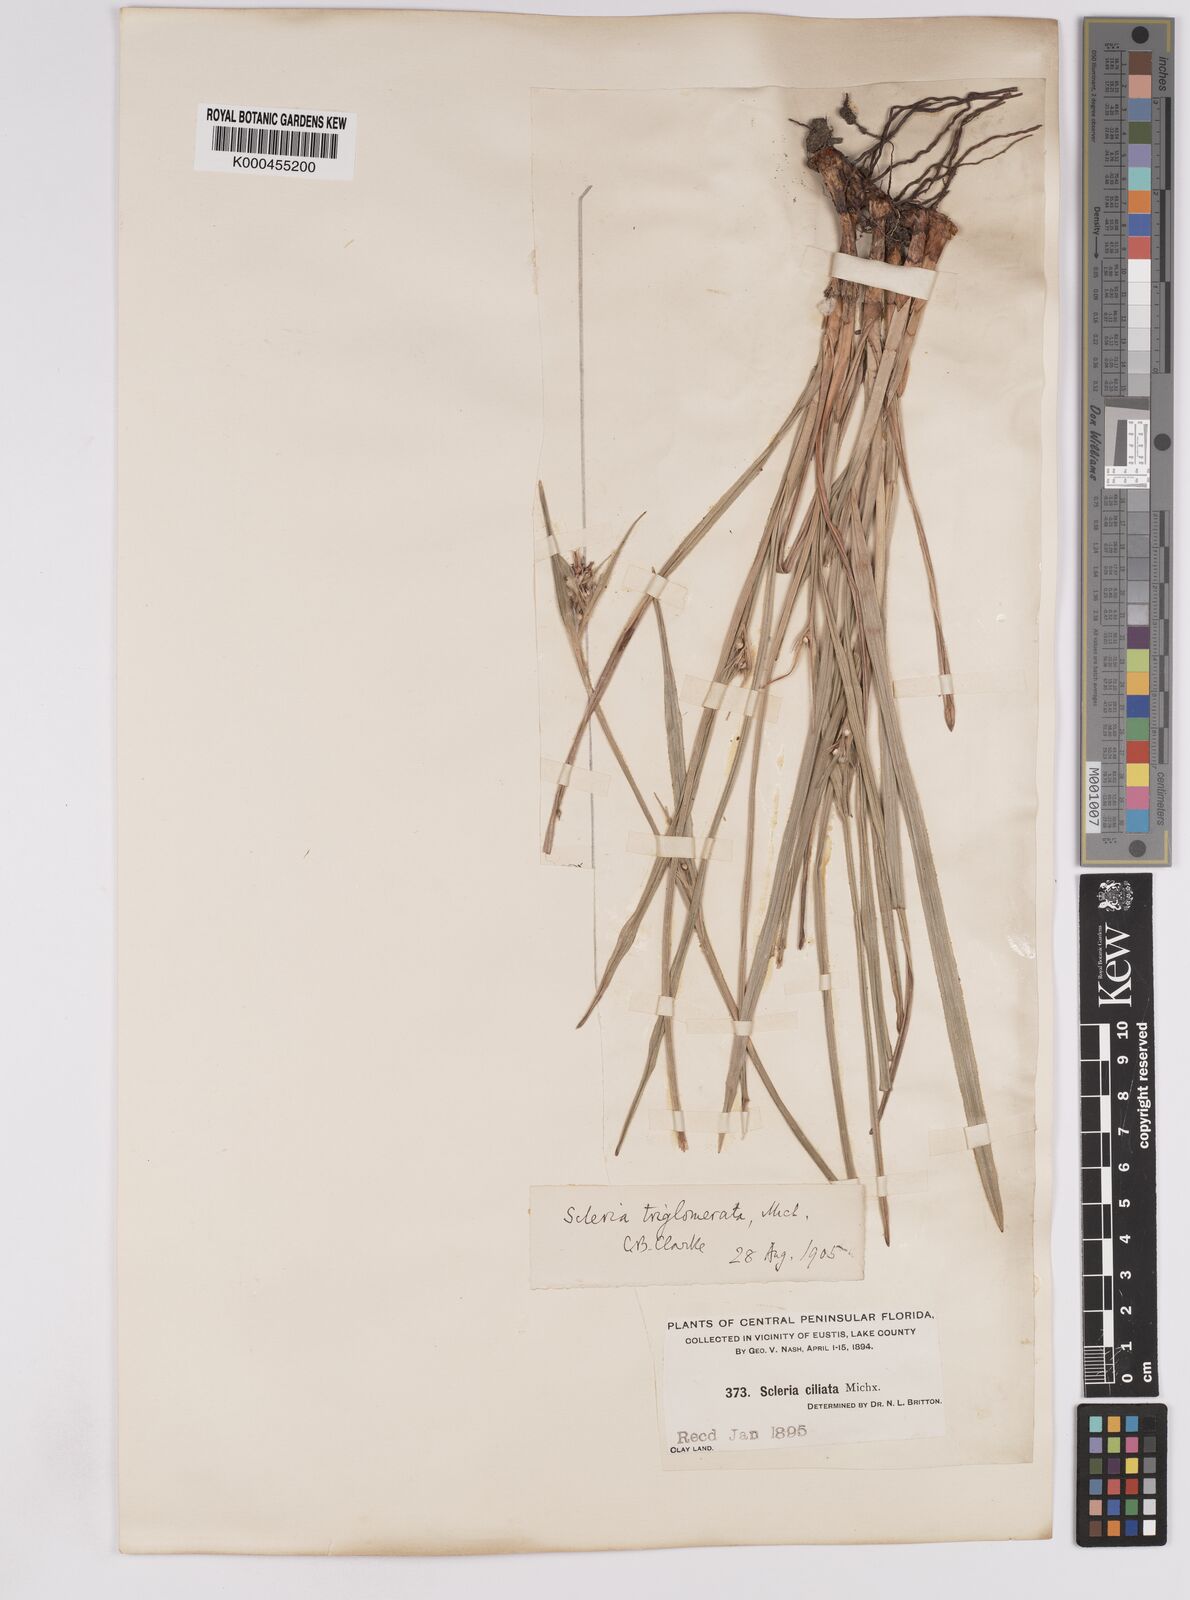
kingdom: Plantae
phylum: Tracheophyta
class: Liliopsida
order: Poales
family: Cyperaceae
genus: Scleria
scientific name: Scleria triglomerata
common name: Whip nutrush
